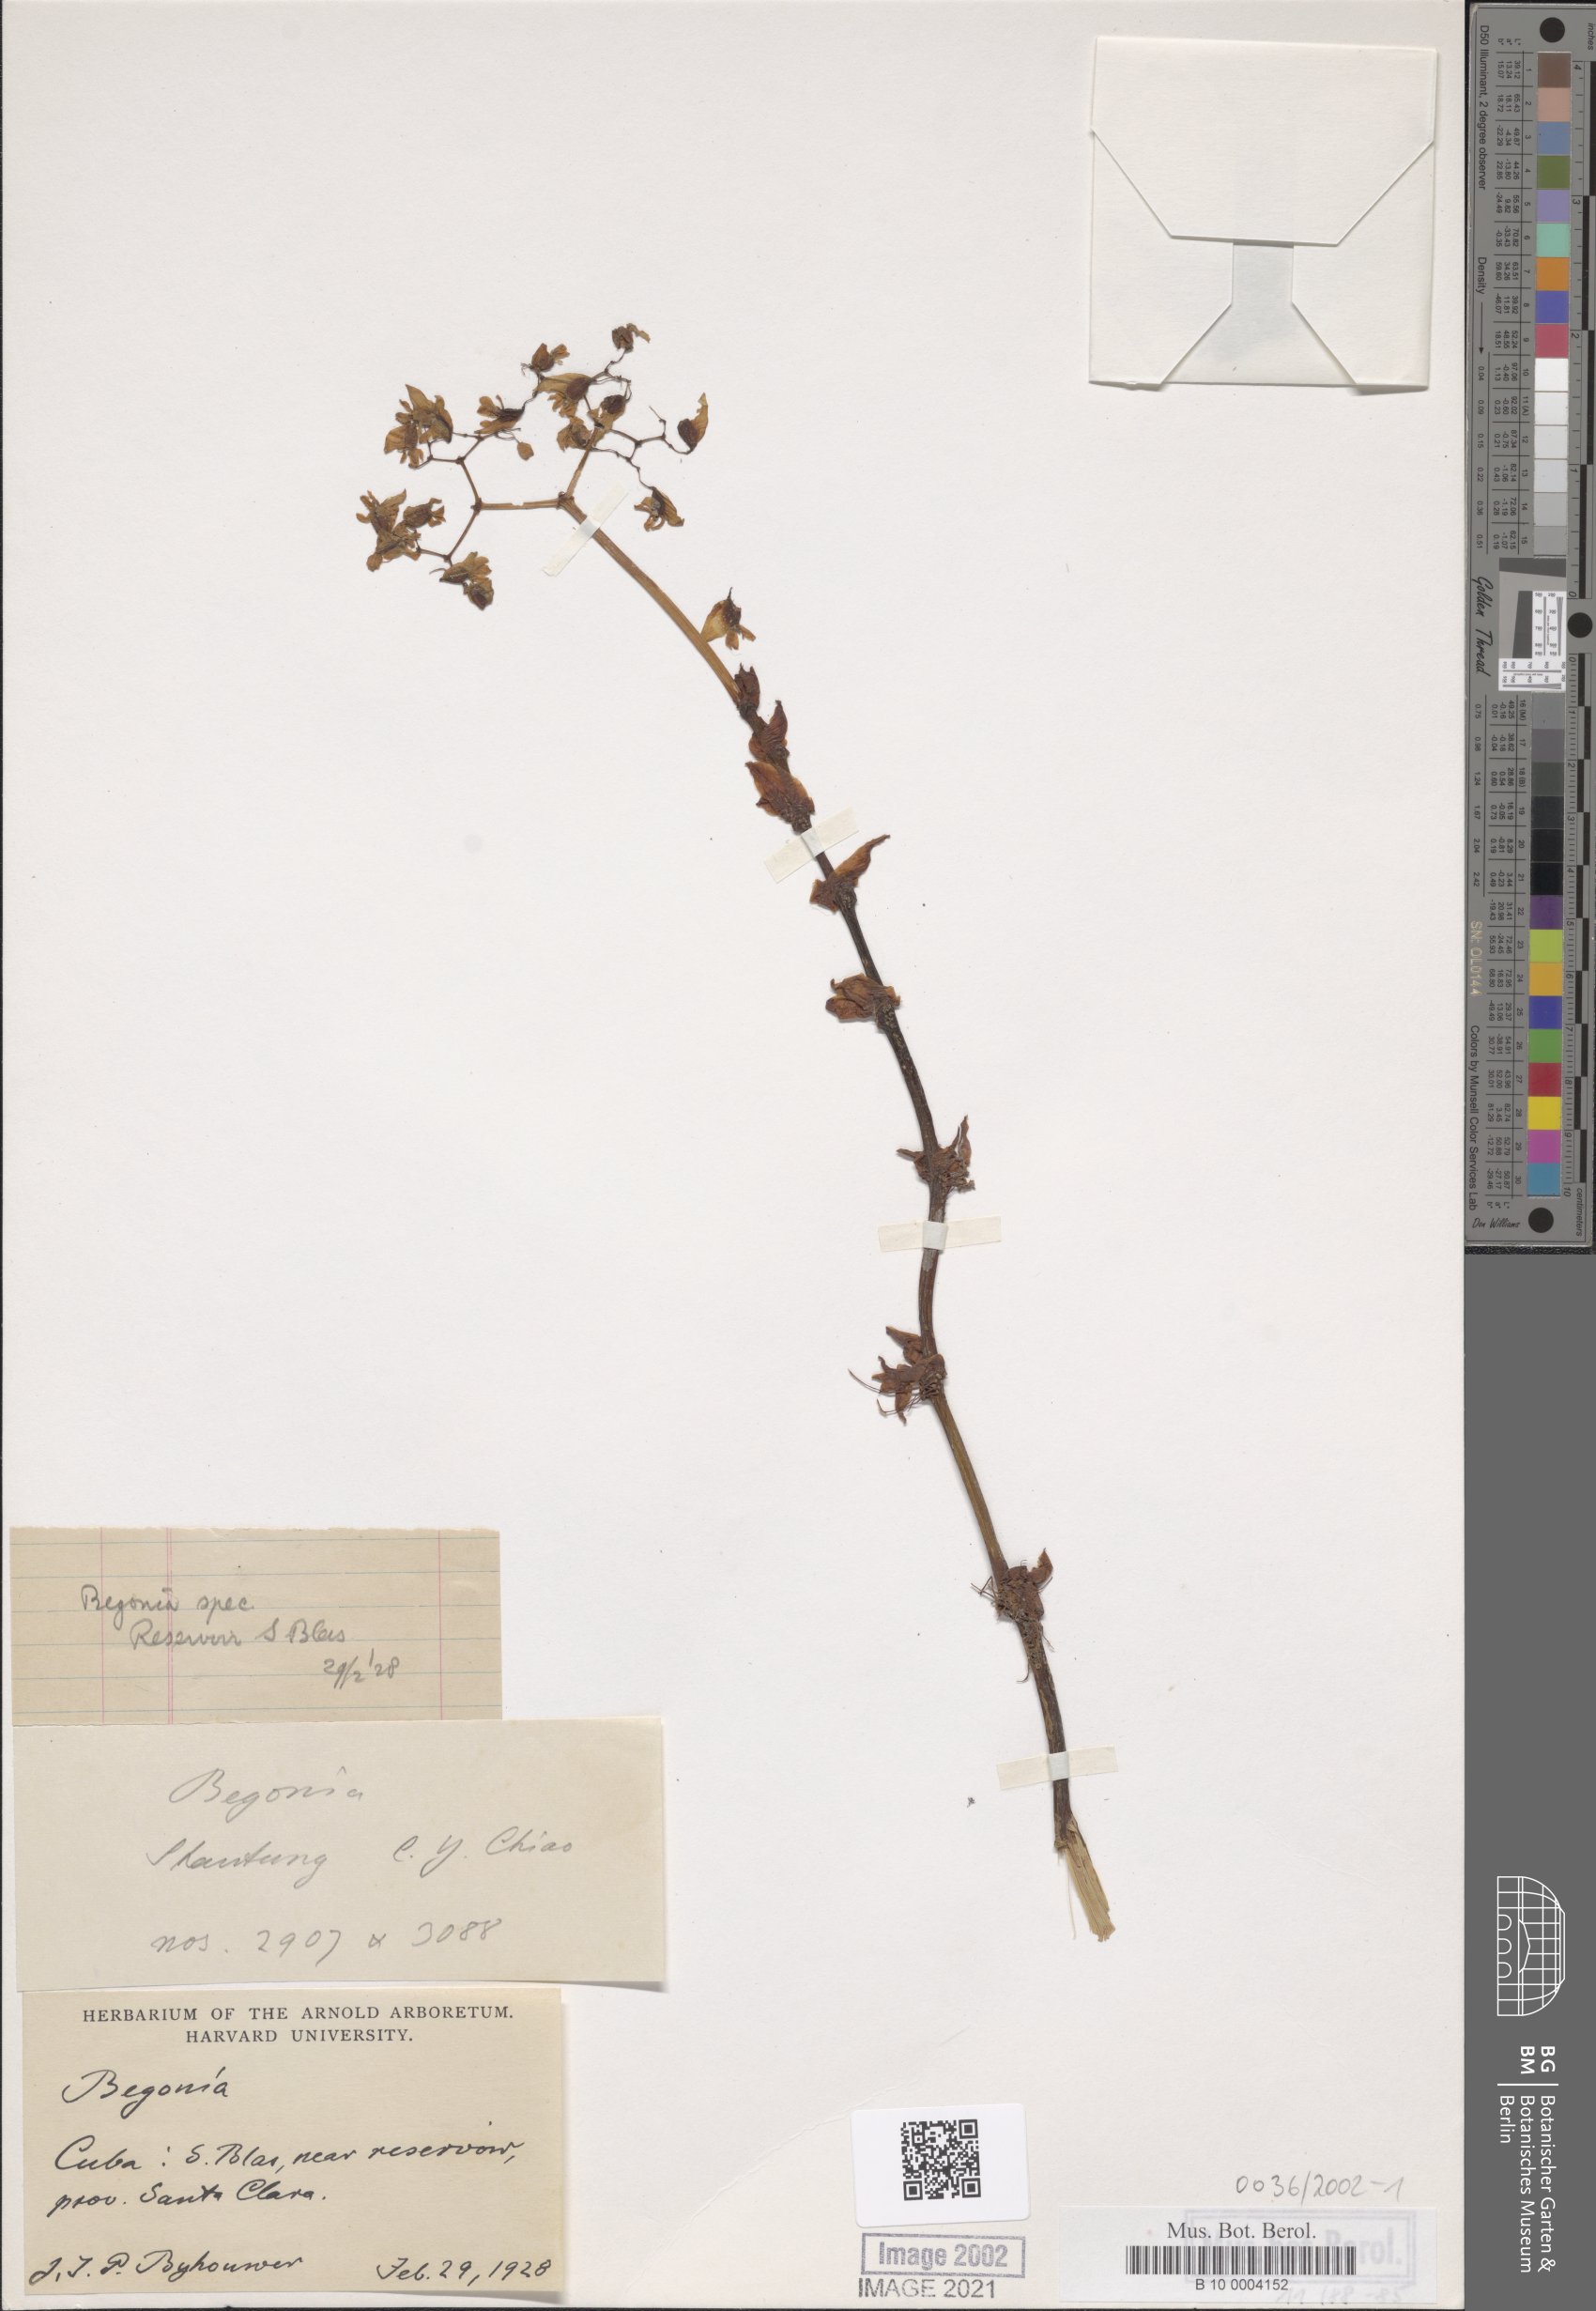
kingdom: Plantae
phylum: Tracheophyta
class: Magnoliopsida
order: Cucurbitales
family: Begoniaceae
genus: Begonia
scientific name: Begonia
